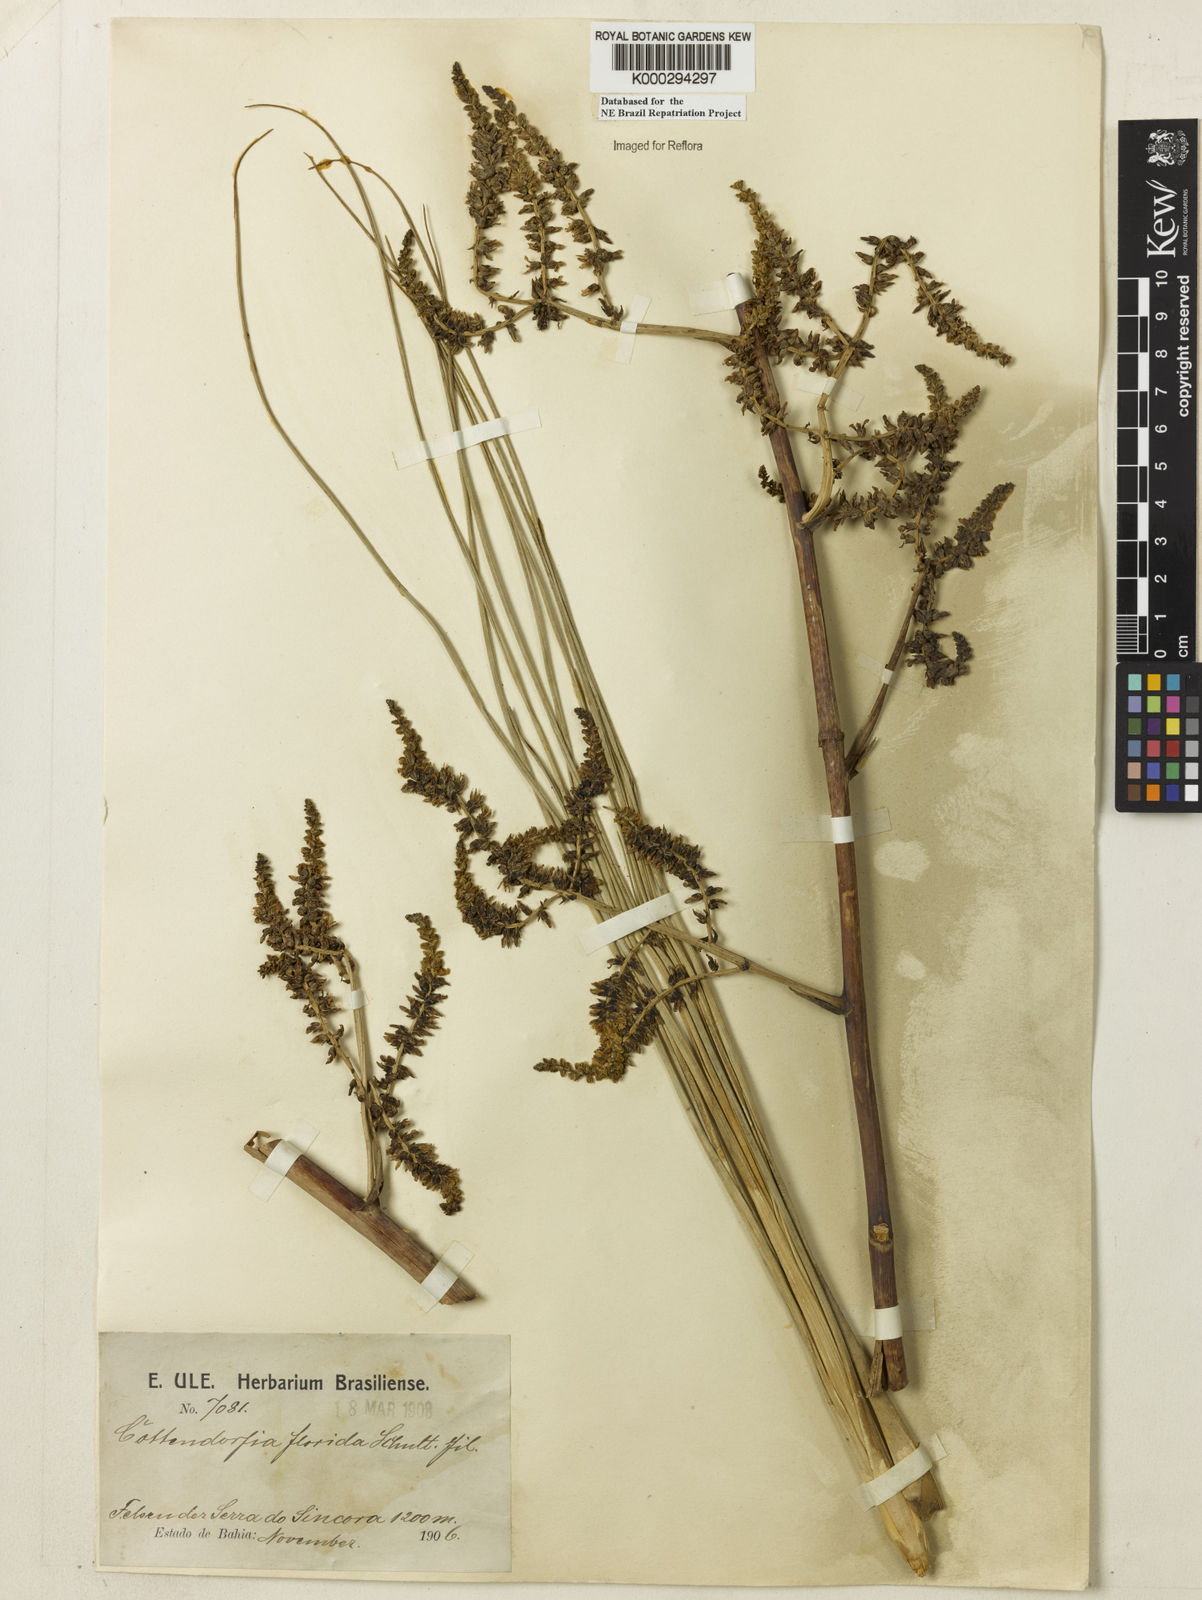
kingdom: Plantae
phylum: Tracheophyta
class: Liliopsida
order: Poales
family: Bromeliaceae
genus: Cottendorfia
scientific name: Cottendorfia florida
